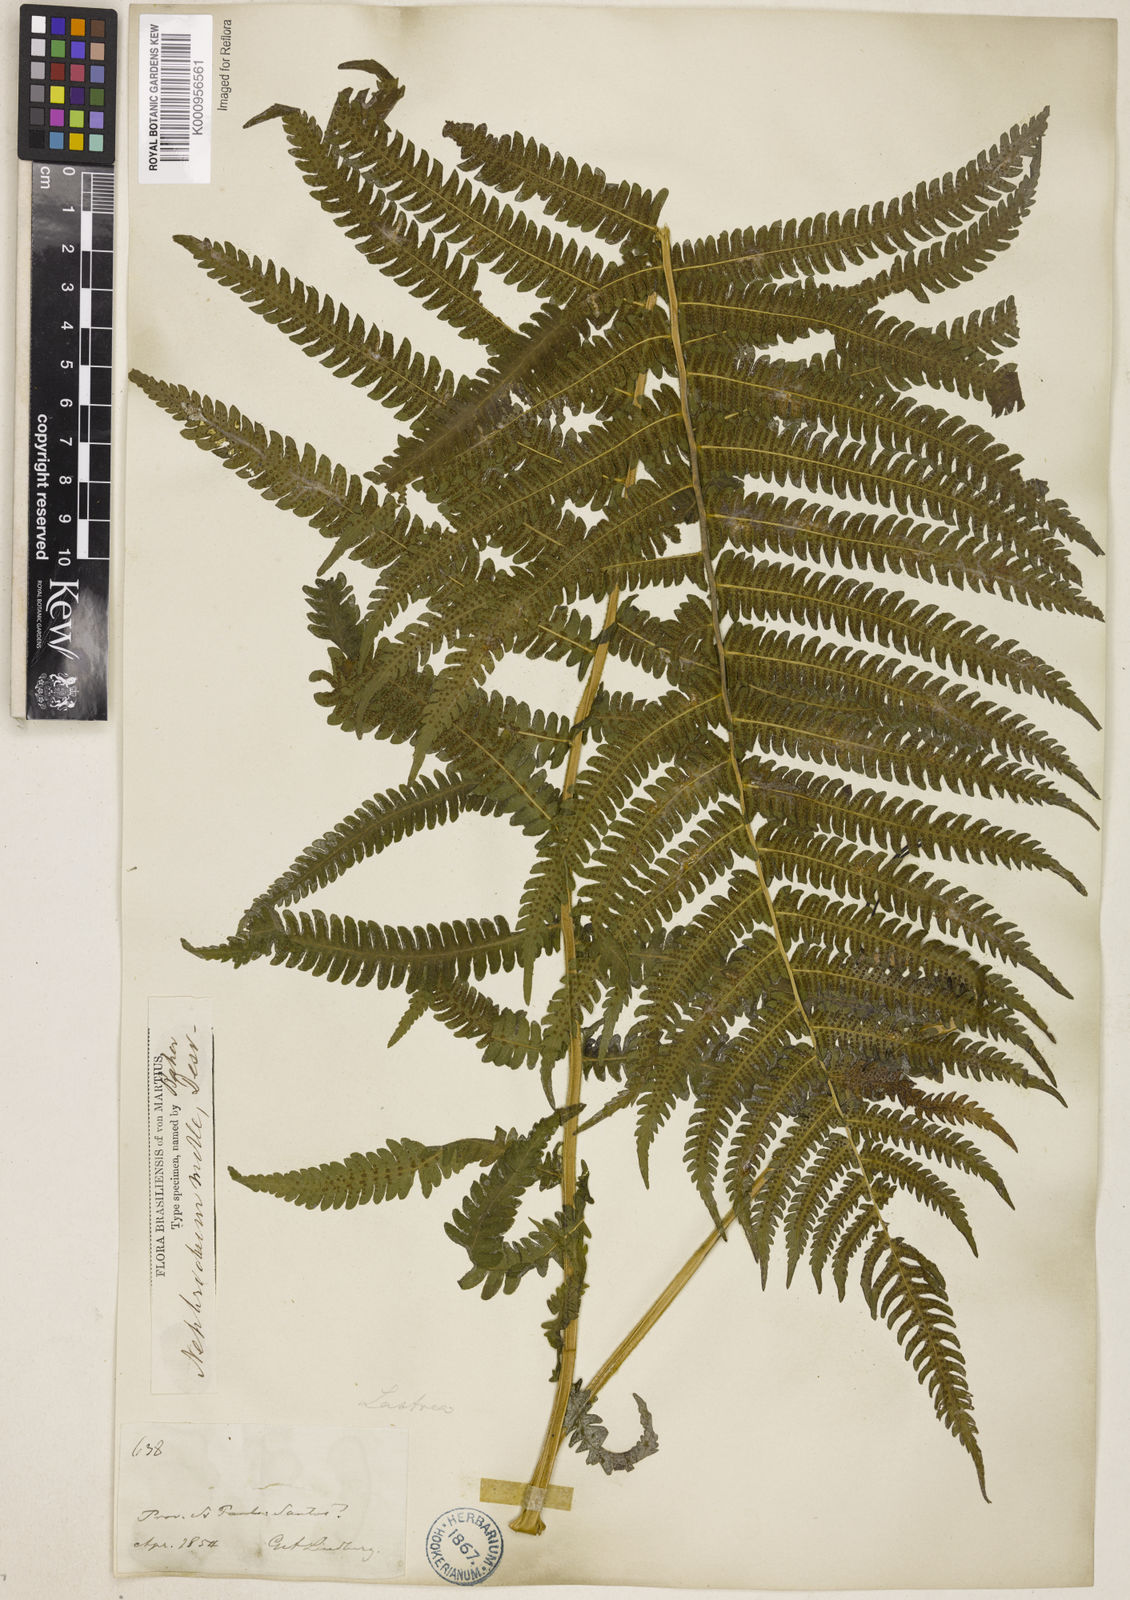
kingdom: Plantae
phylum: Tracheophyta
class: Polypodiopsida
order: Polypodiales
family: Thelypteridaceae
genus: Christella
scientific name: Christella hispidula
